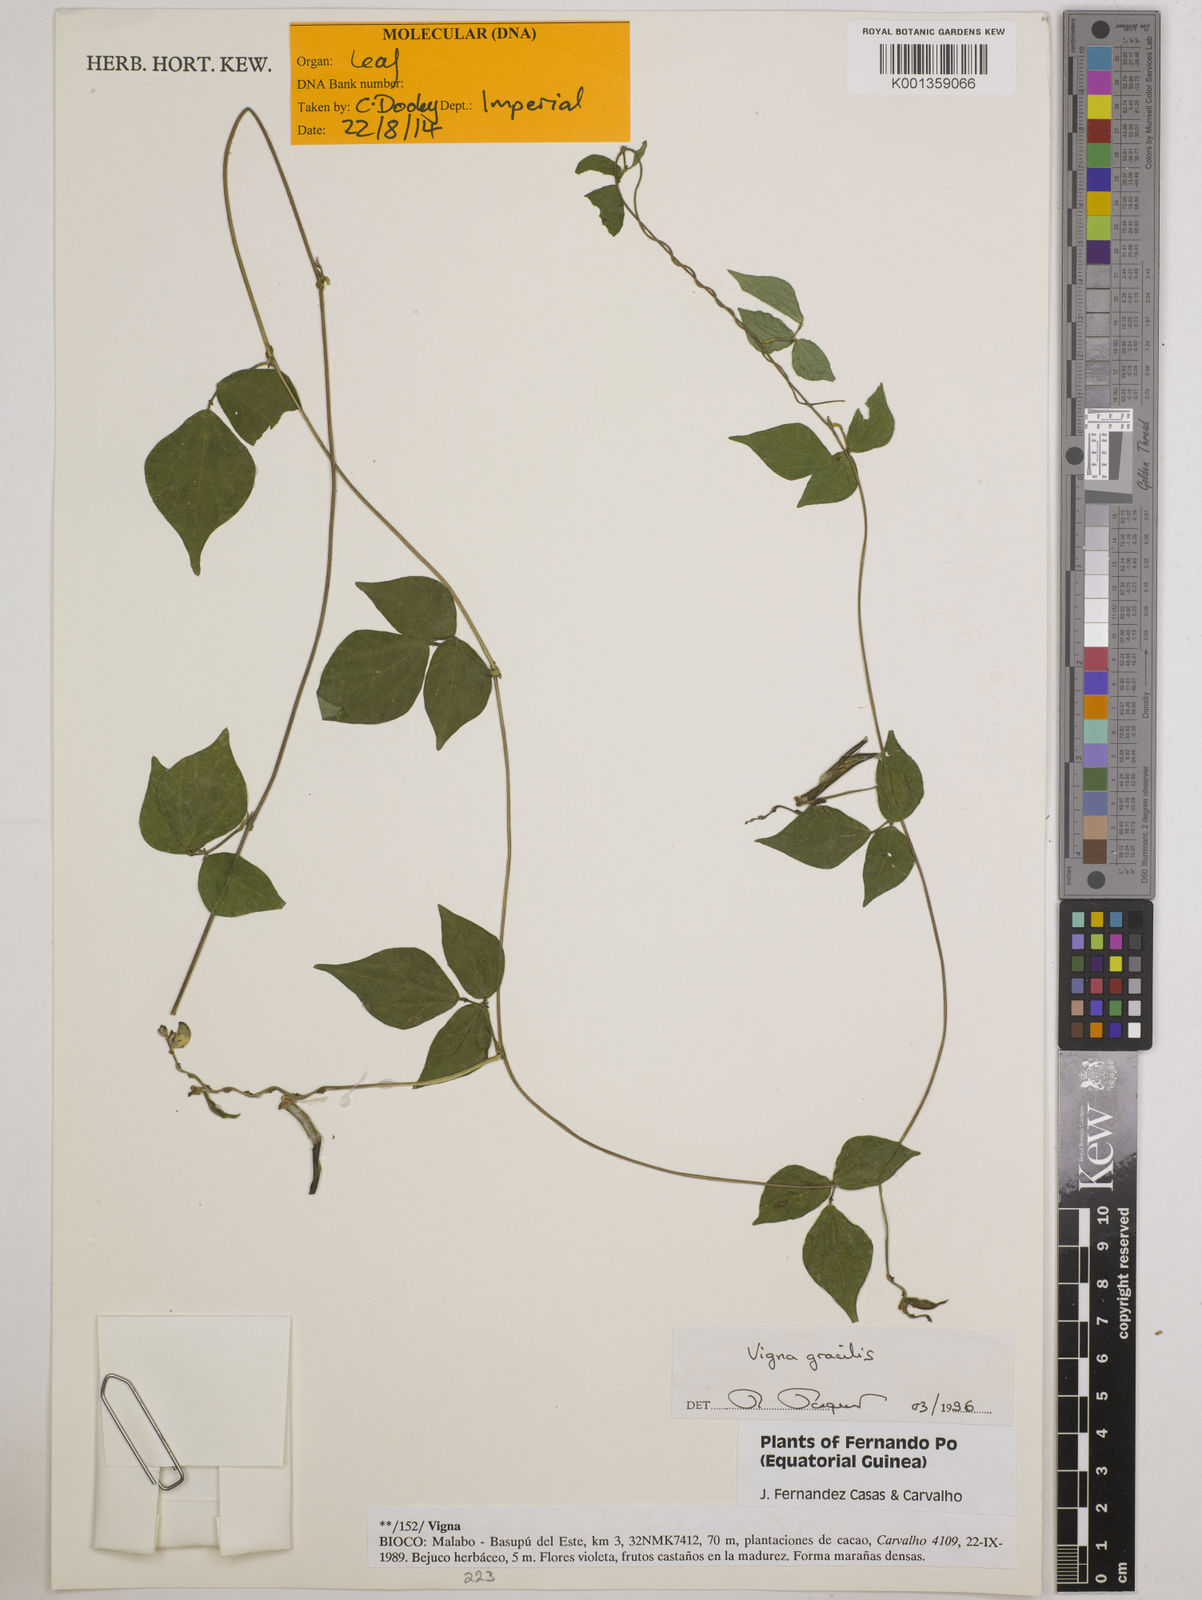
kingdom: Plantae
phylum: Tracheophyta
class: Magnoliopsida
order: Fabales
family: Fabaceae
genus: Vigna
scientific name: Vigna gracilis
